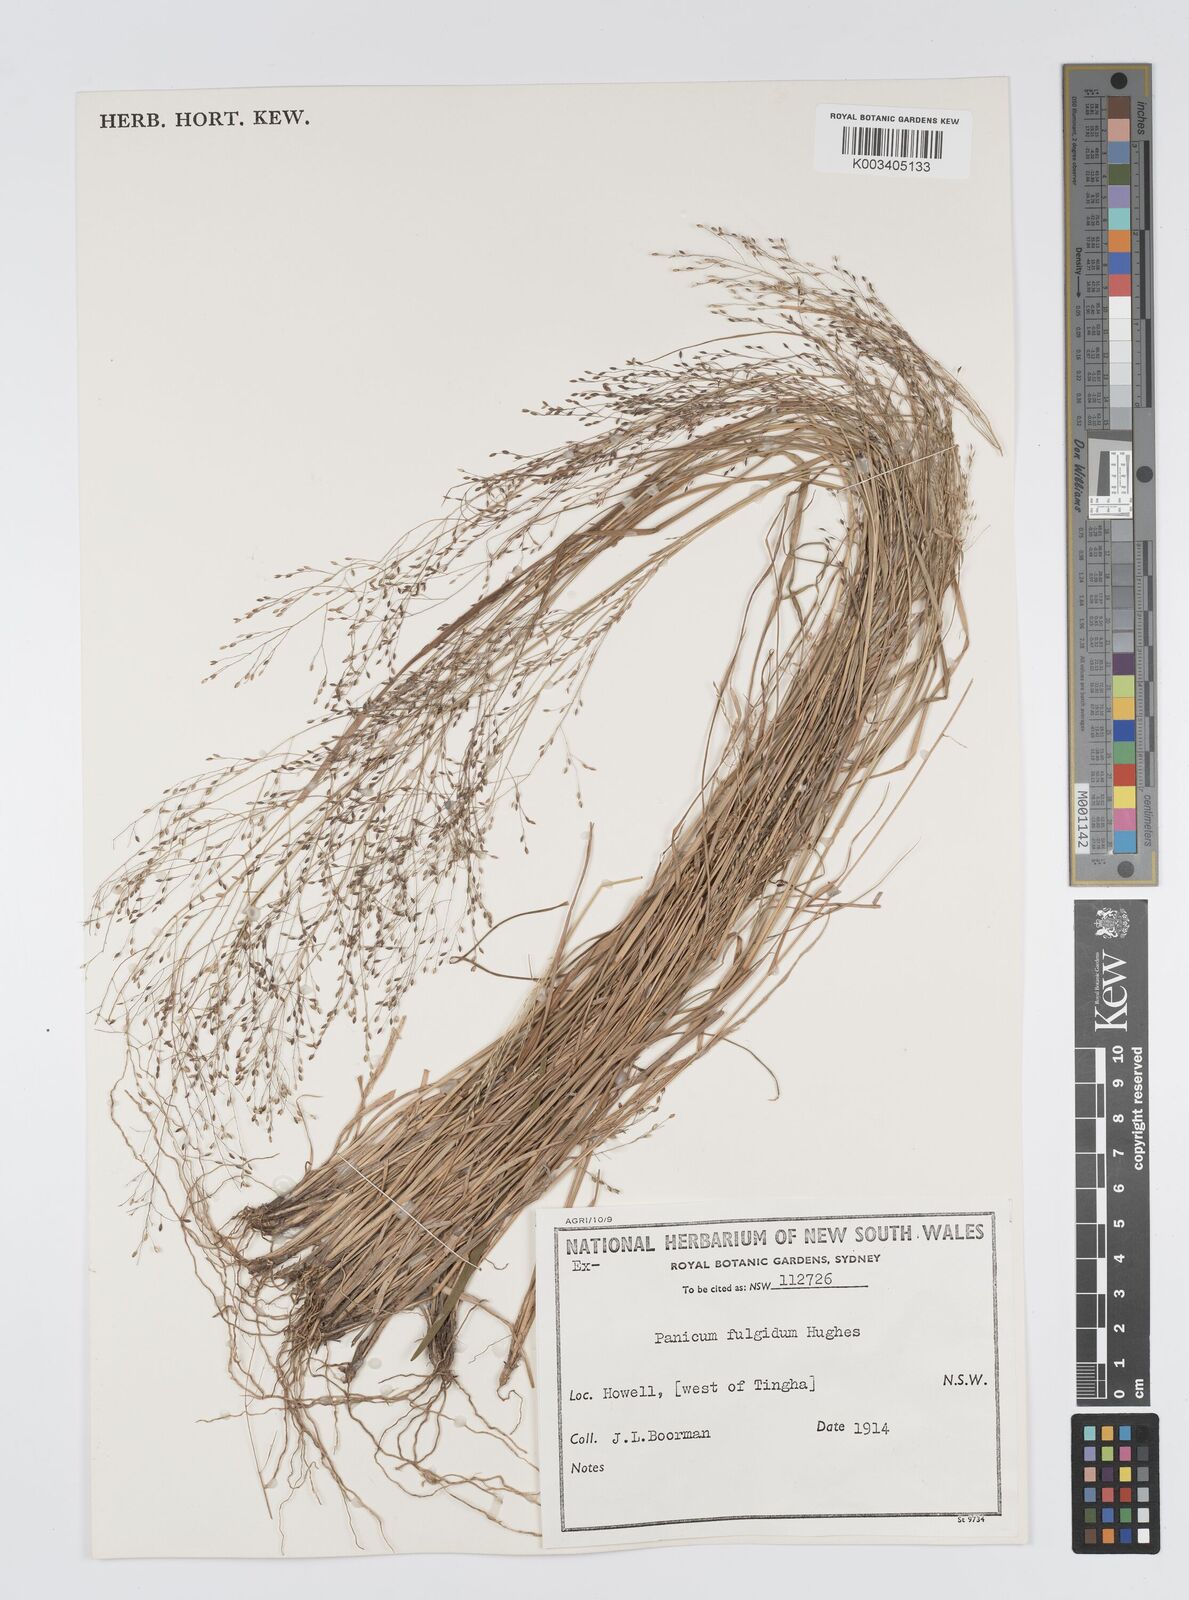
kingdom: Plantae
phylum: Tracheophyta
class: Liliopsida
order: Poales
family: Poaceae
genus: Panicum
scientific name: Panicum simile
